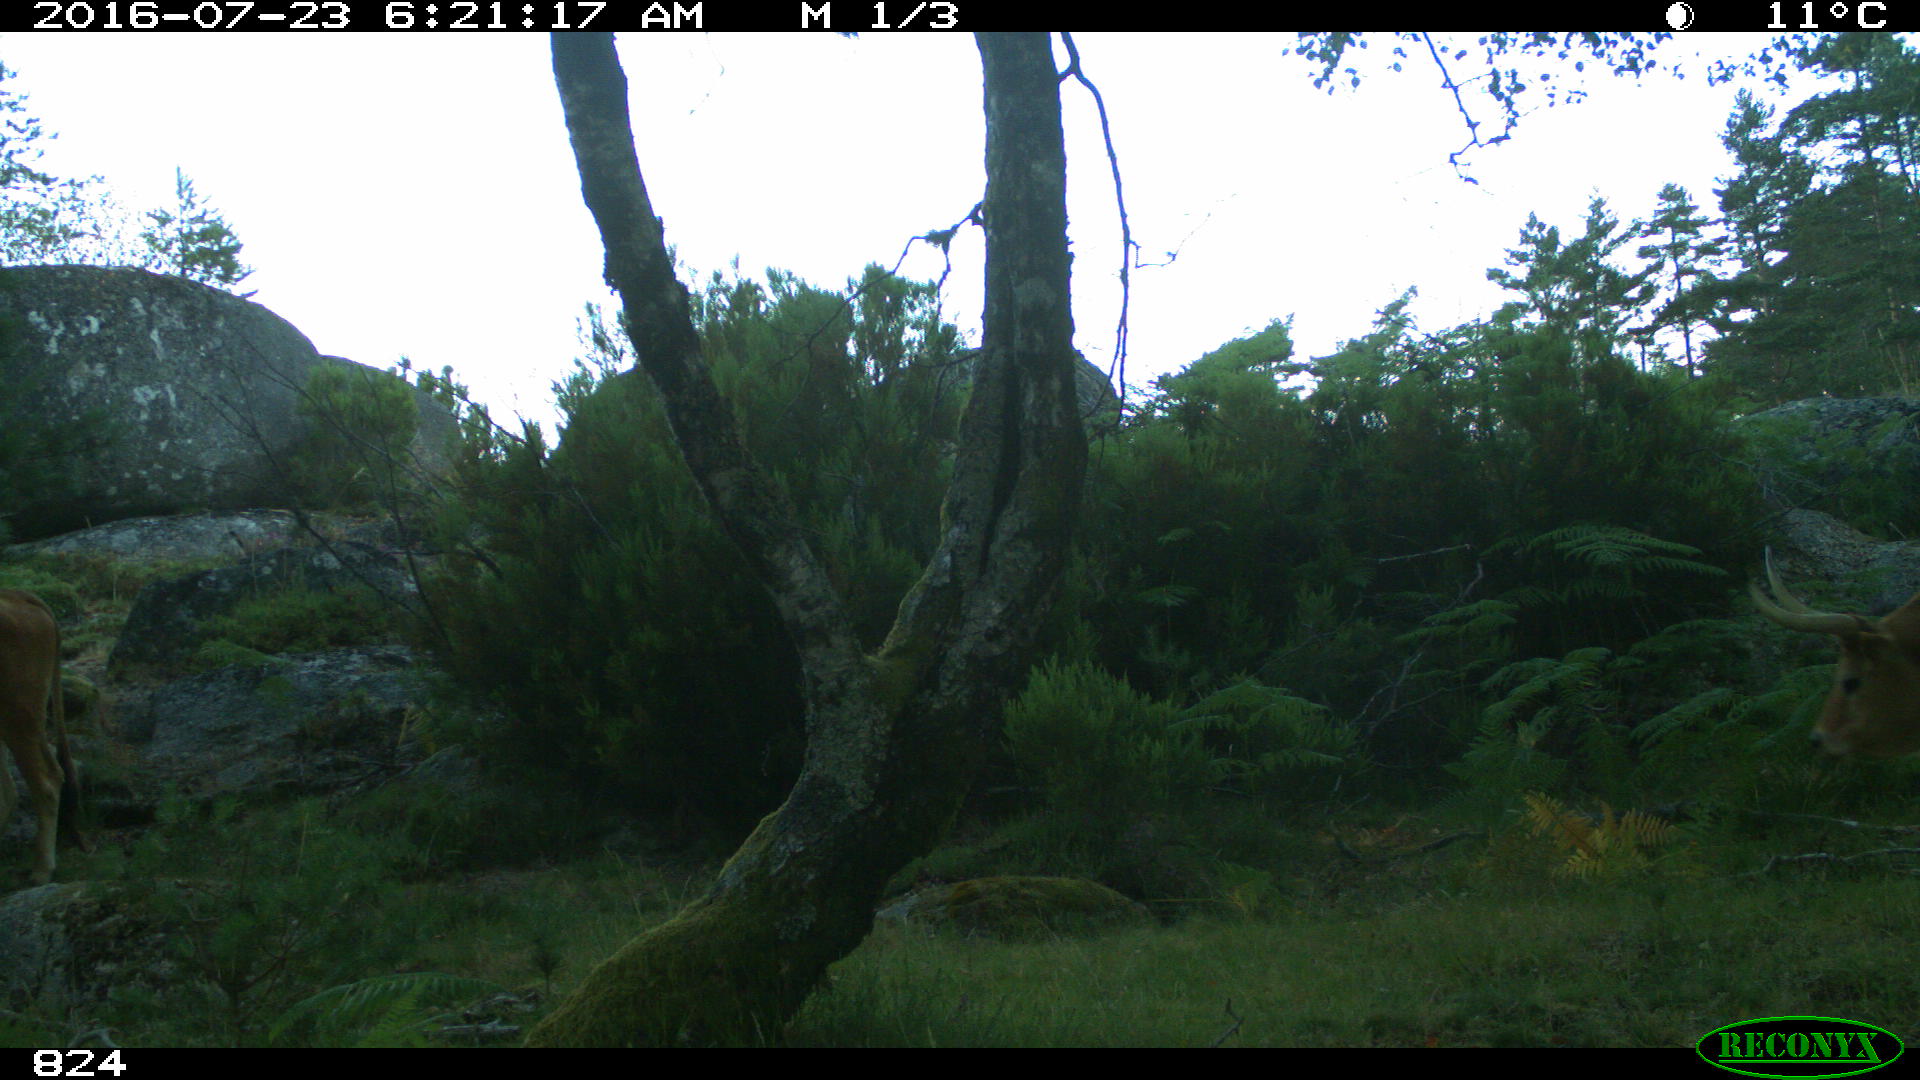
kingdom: Animalia
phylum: Chordata
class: Mammalia
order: Artiodactyla
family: Bovidae
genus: Bos
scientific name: Bos taurus
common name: Domesticated cattle
